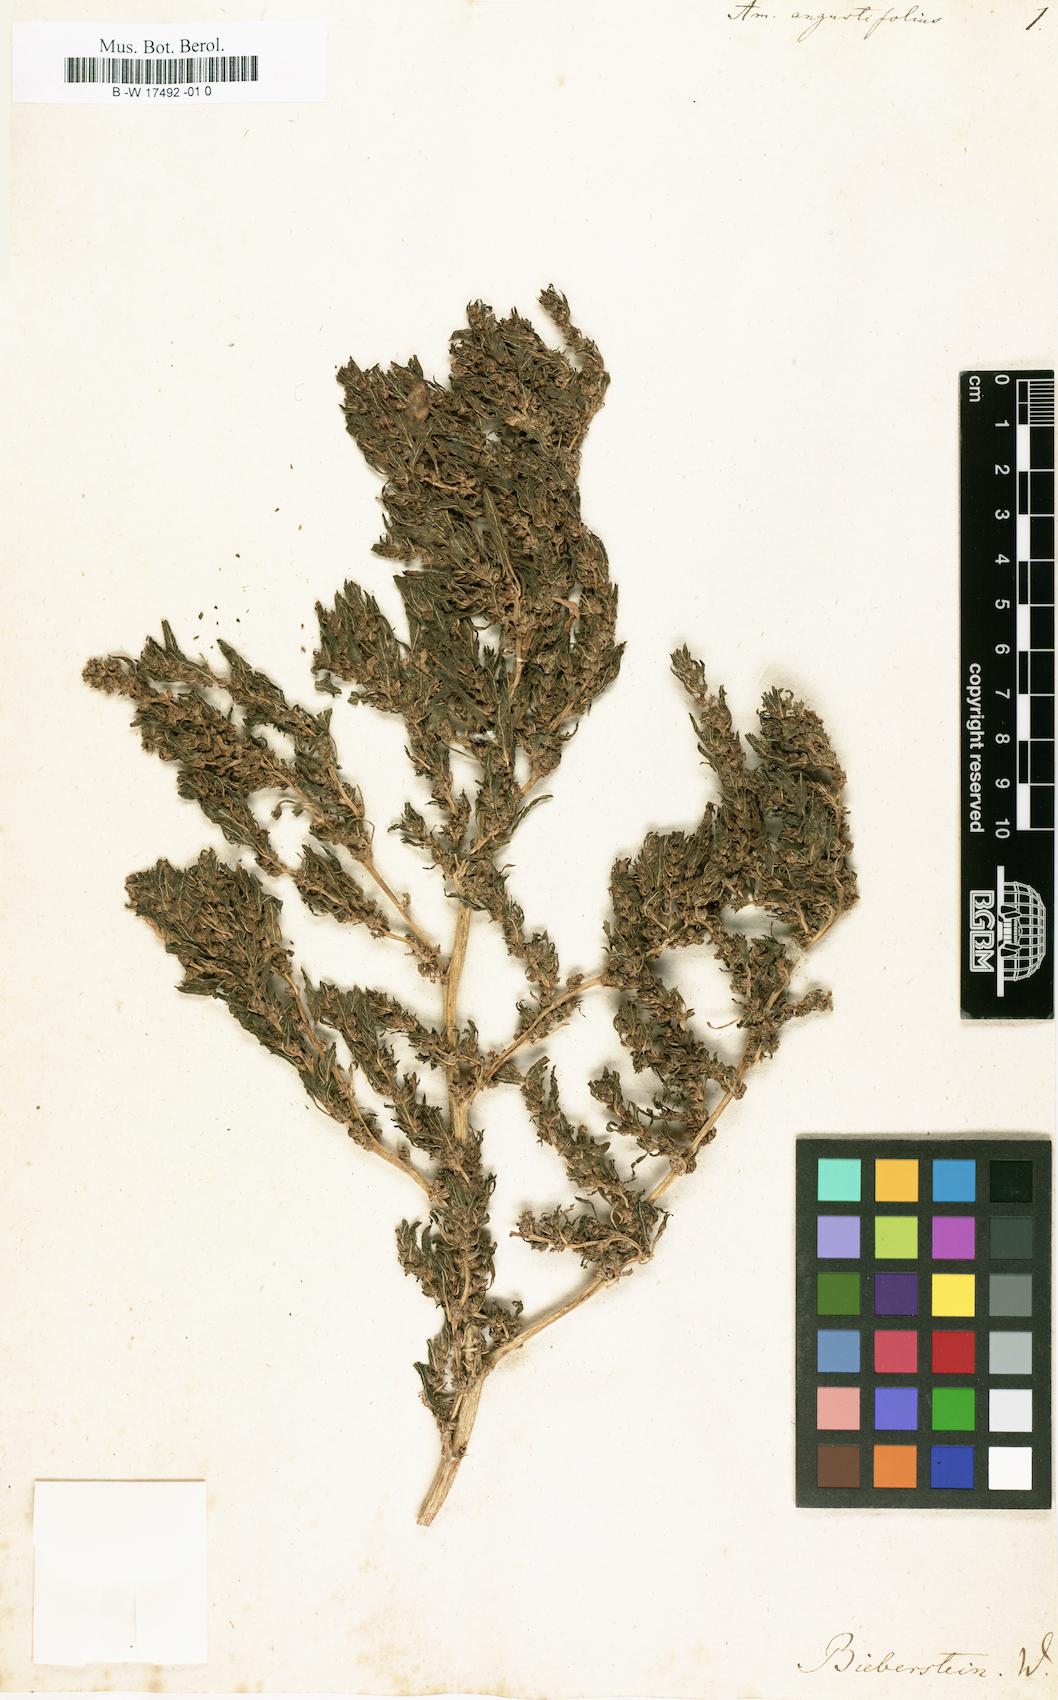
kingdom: Plantae
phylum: Tracheophyta
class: Magnoliopsida
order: Caryophyllales
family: Amaranthaceae
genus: Amaranthus
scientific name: Amaranthus graecizans
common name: Mediterranean amaranth
